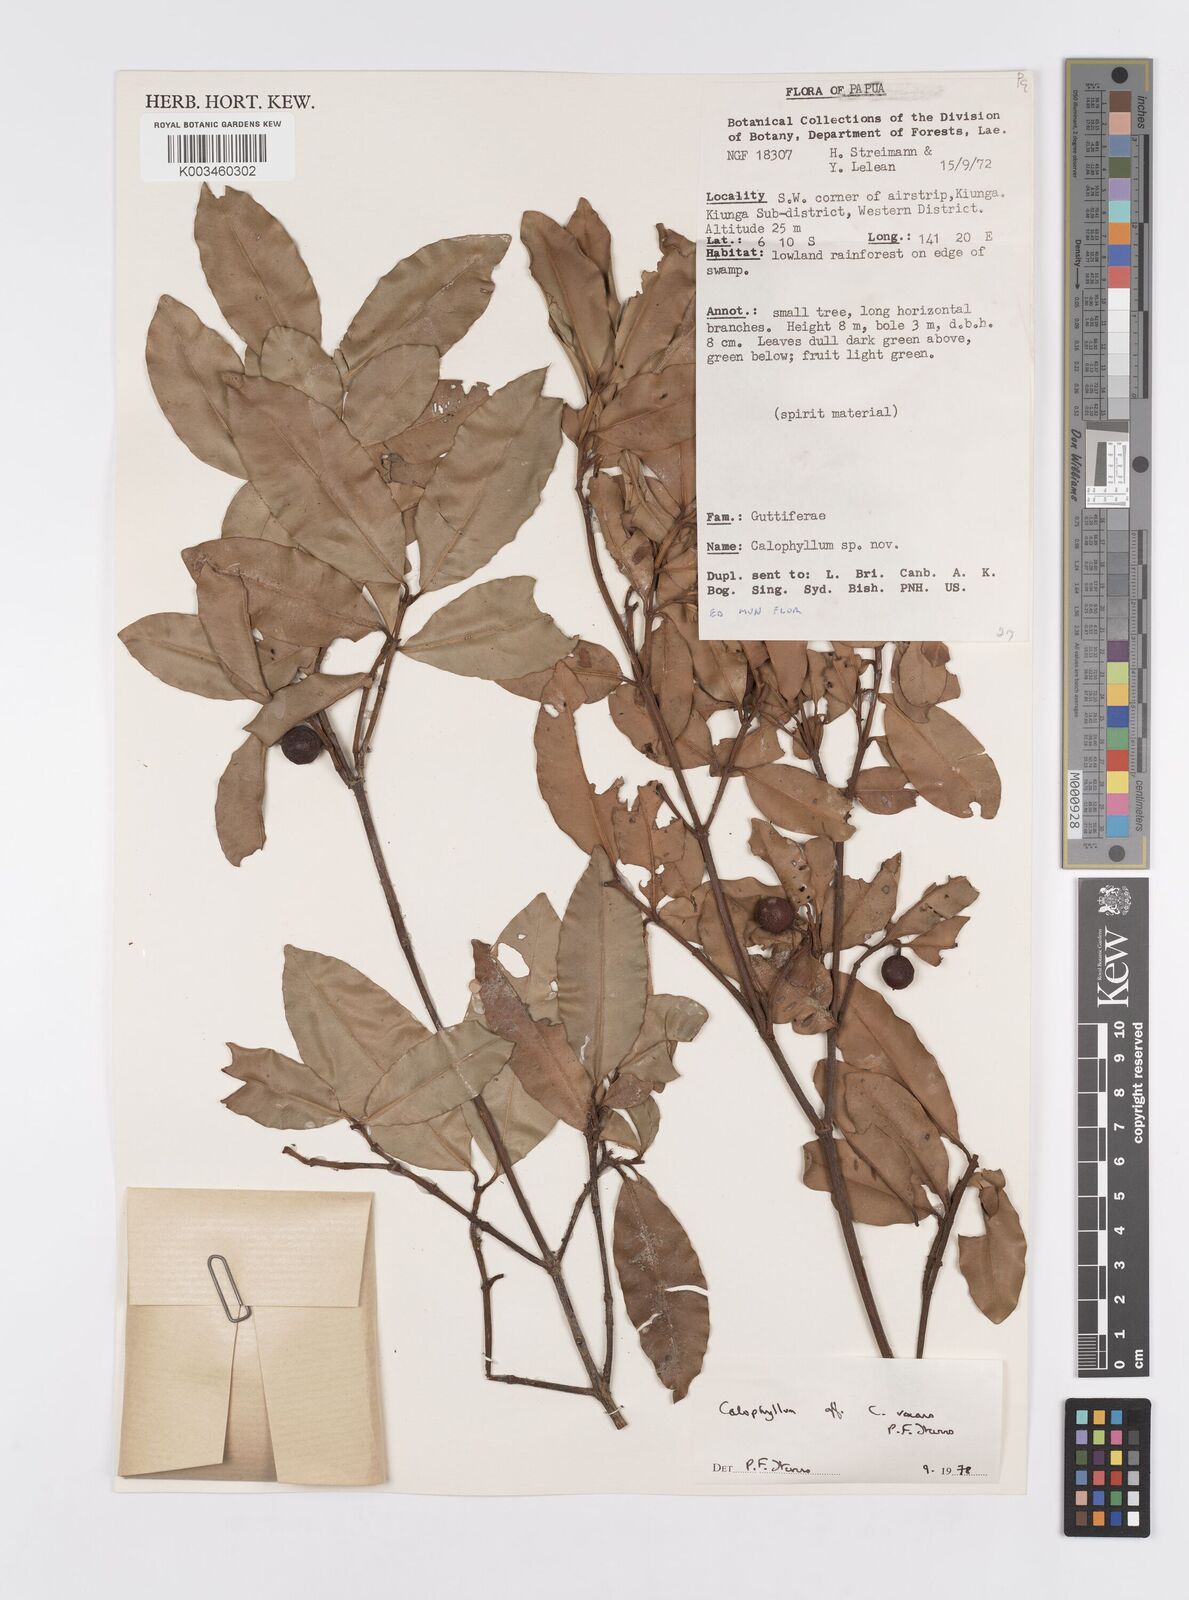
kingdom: Plantae
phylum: Tracheophyta
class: Magnoliopsida
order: Malpighiales
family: Calophyllaceae
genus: Calophyllum
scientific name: Calophyllum vexans
